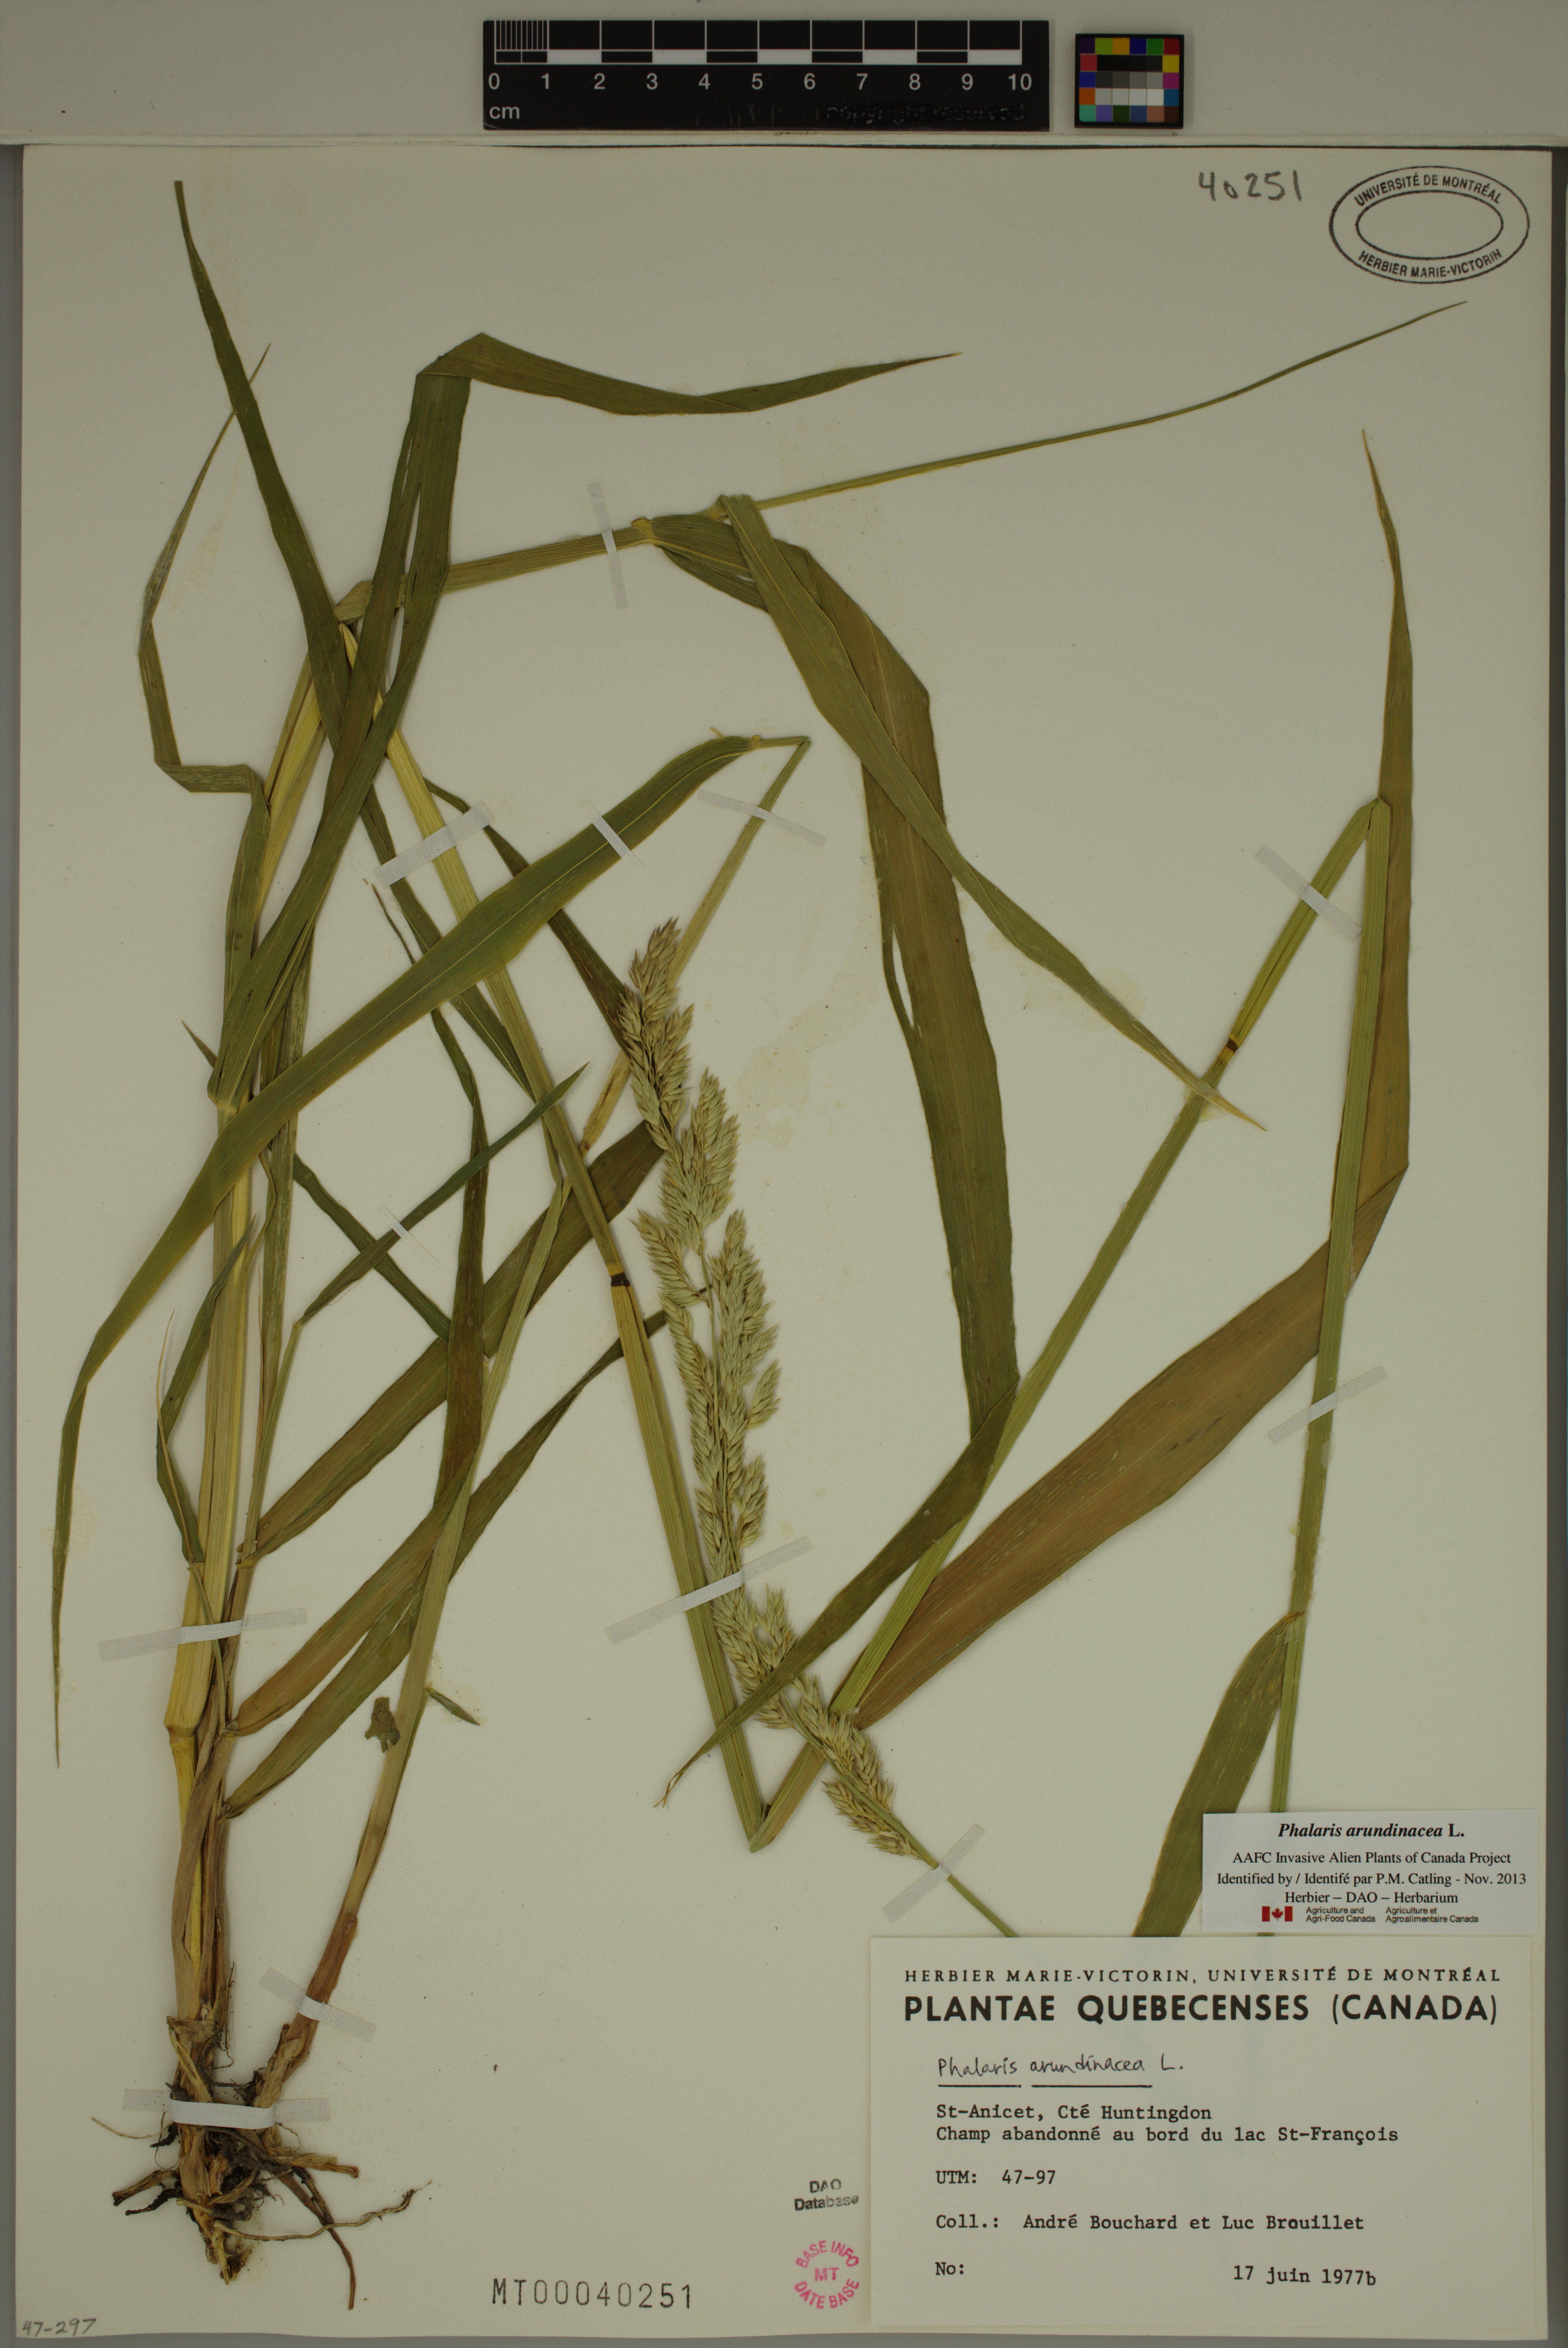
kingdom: Plantae
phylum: Tracheophyta
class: Liliopsida
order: Poales
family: Poaceae
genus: Phalaris
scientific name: Phalaris arundinacea
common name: Reed canary-grass
